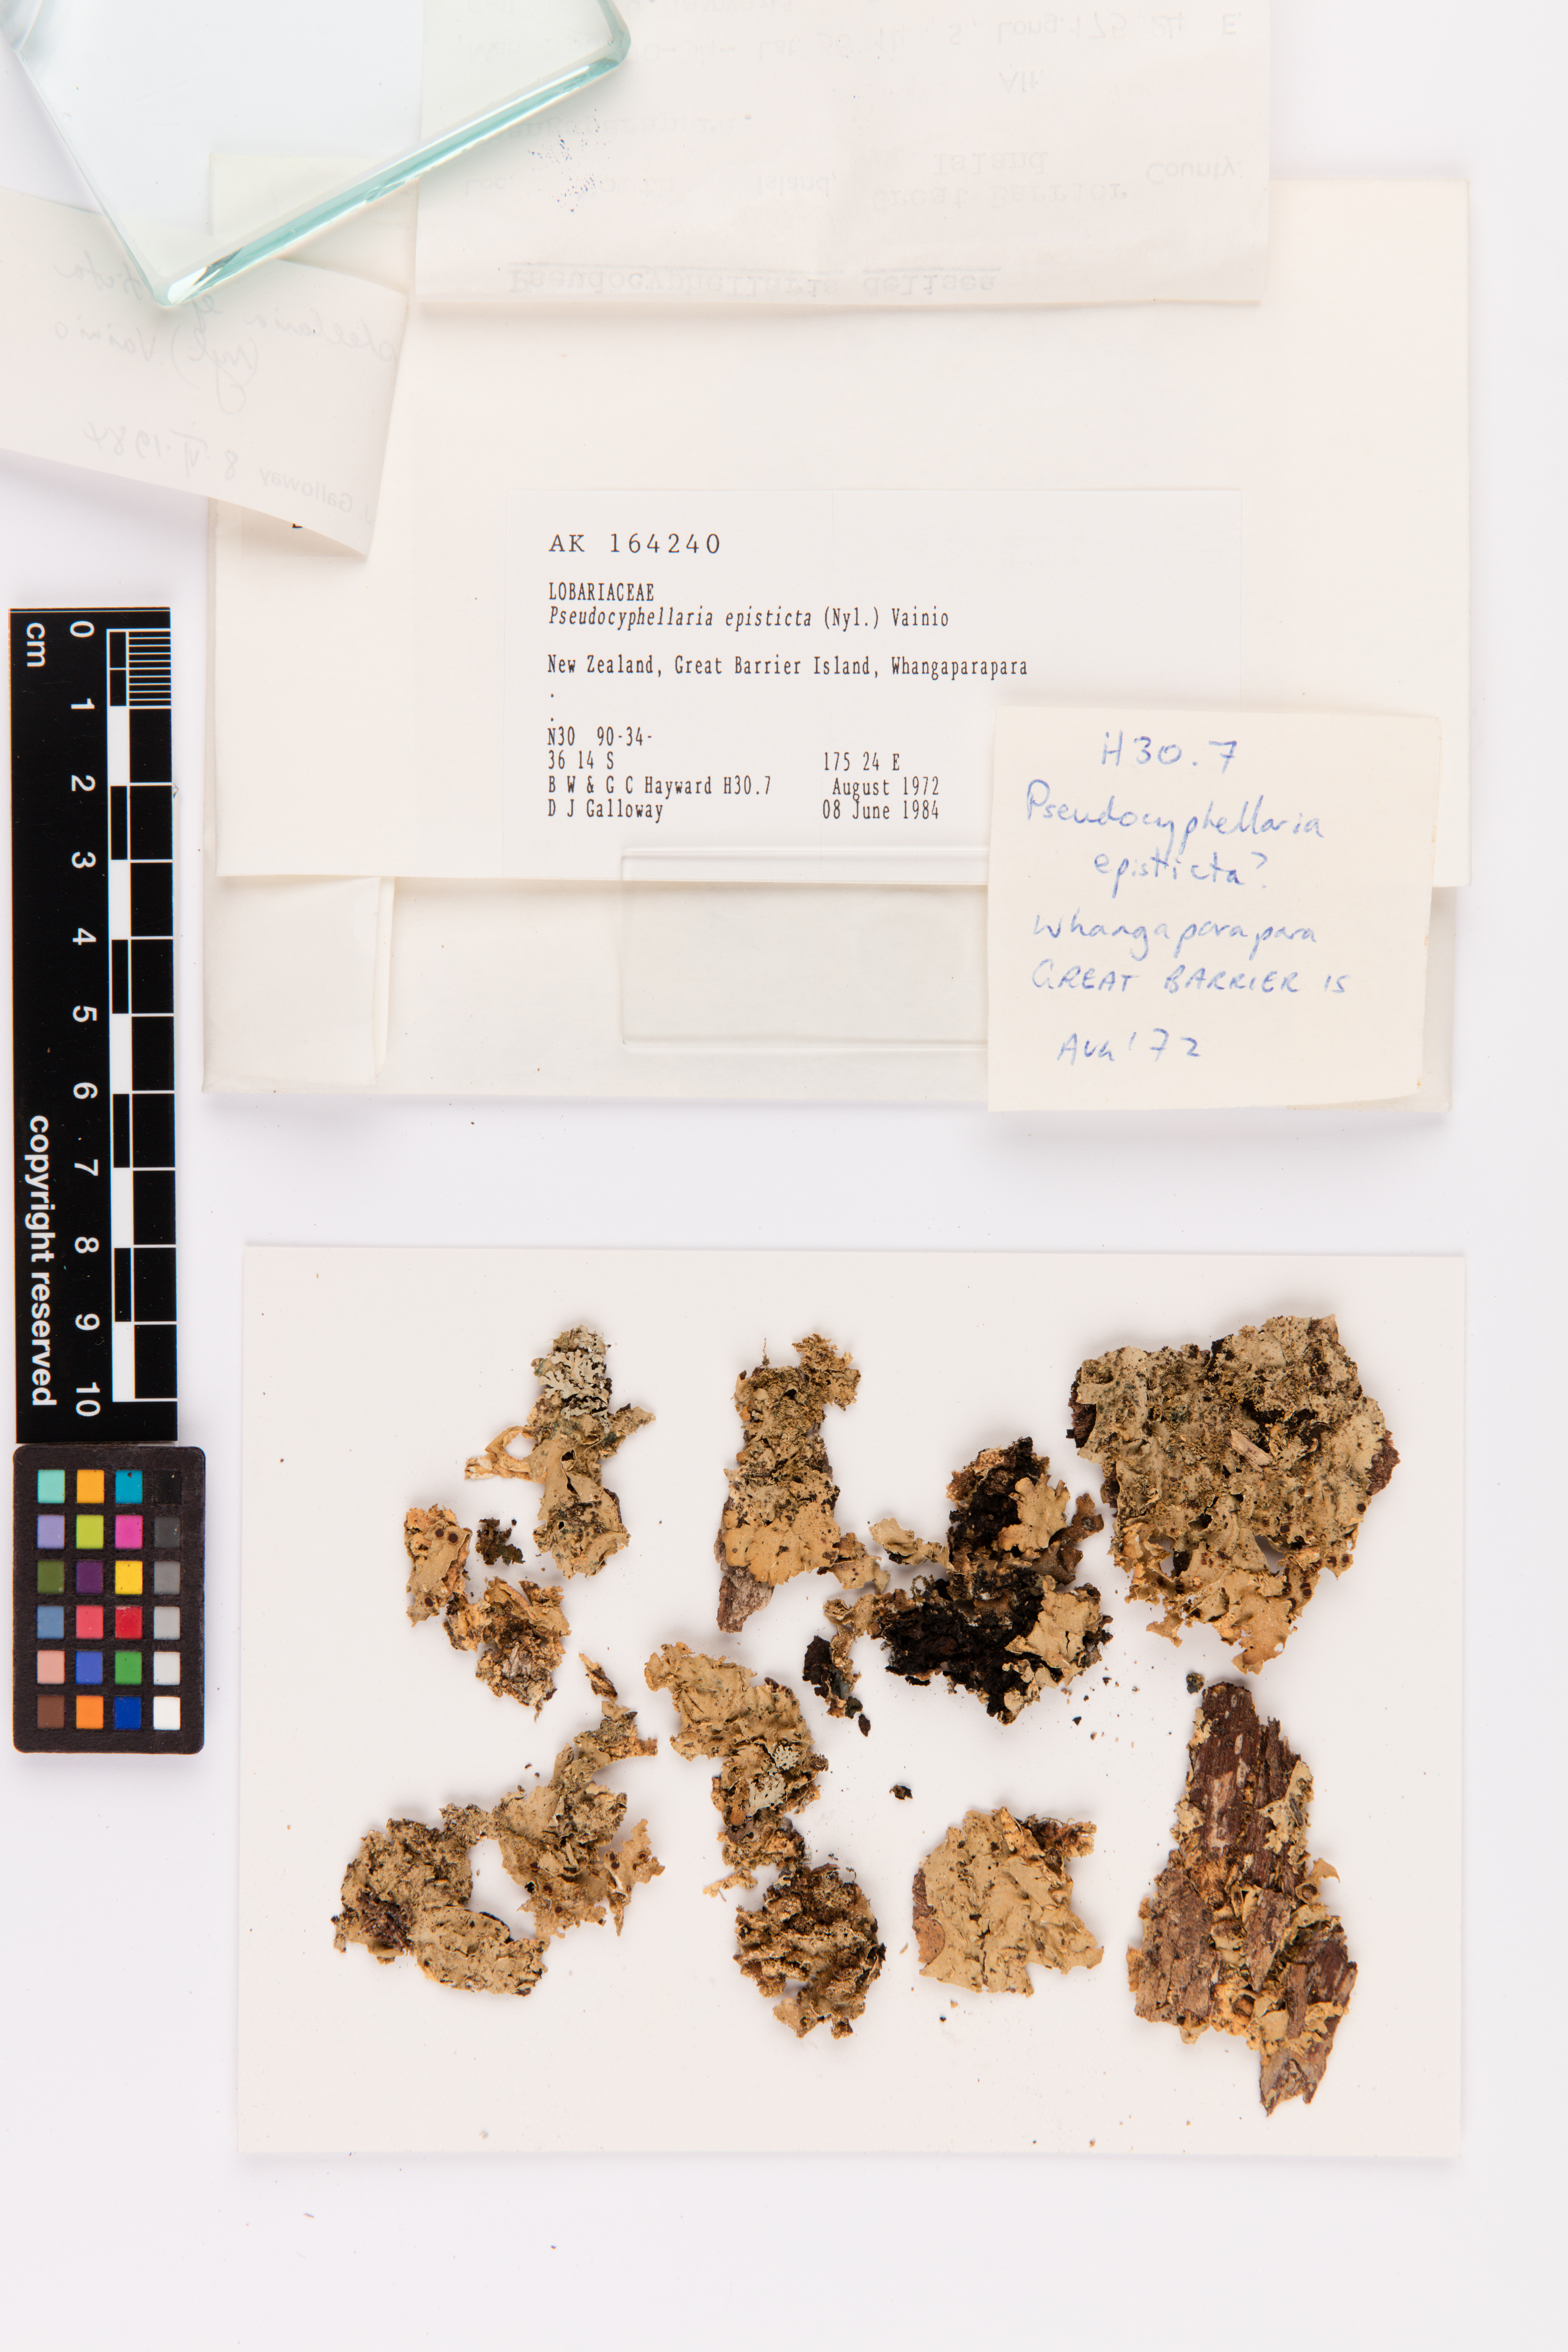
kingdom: Fungi
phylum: Ascomycota
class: Lecanoromycetes
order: Peltigerales
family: Lobariaceae
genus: Pseudocyphellaria
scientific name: Pseudocyphellaria episticta
